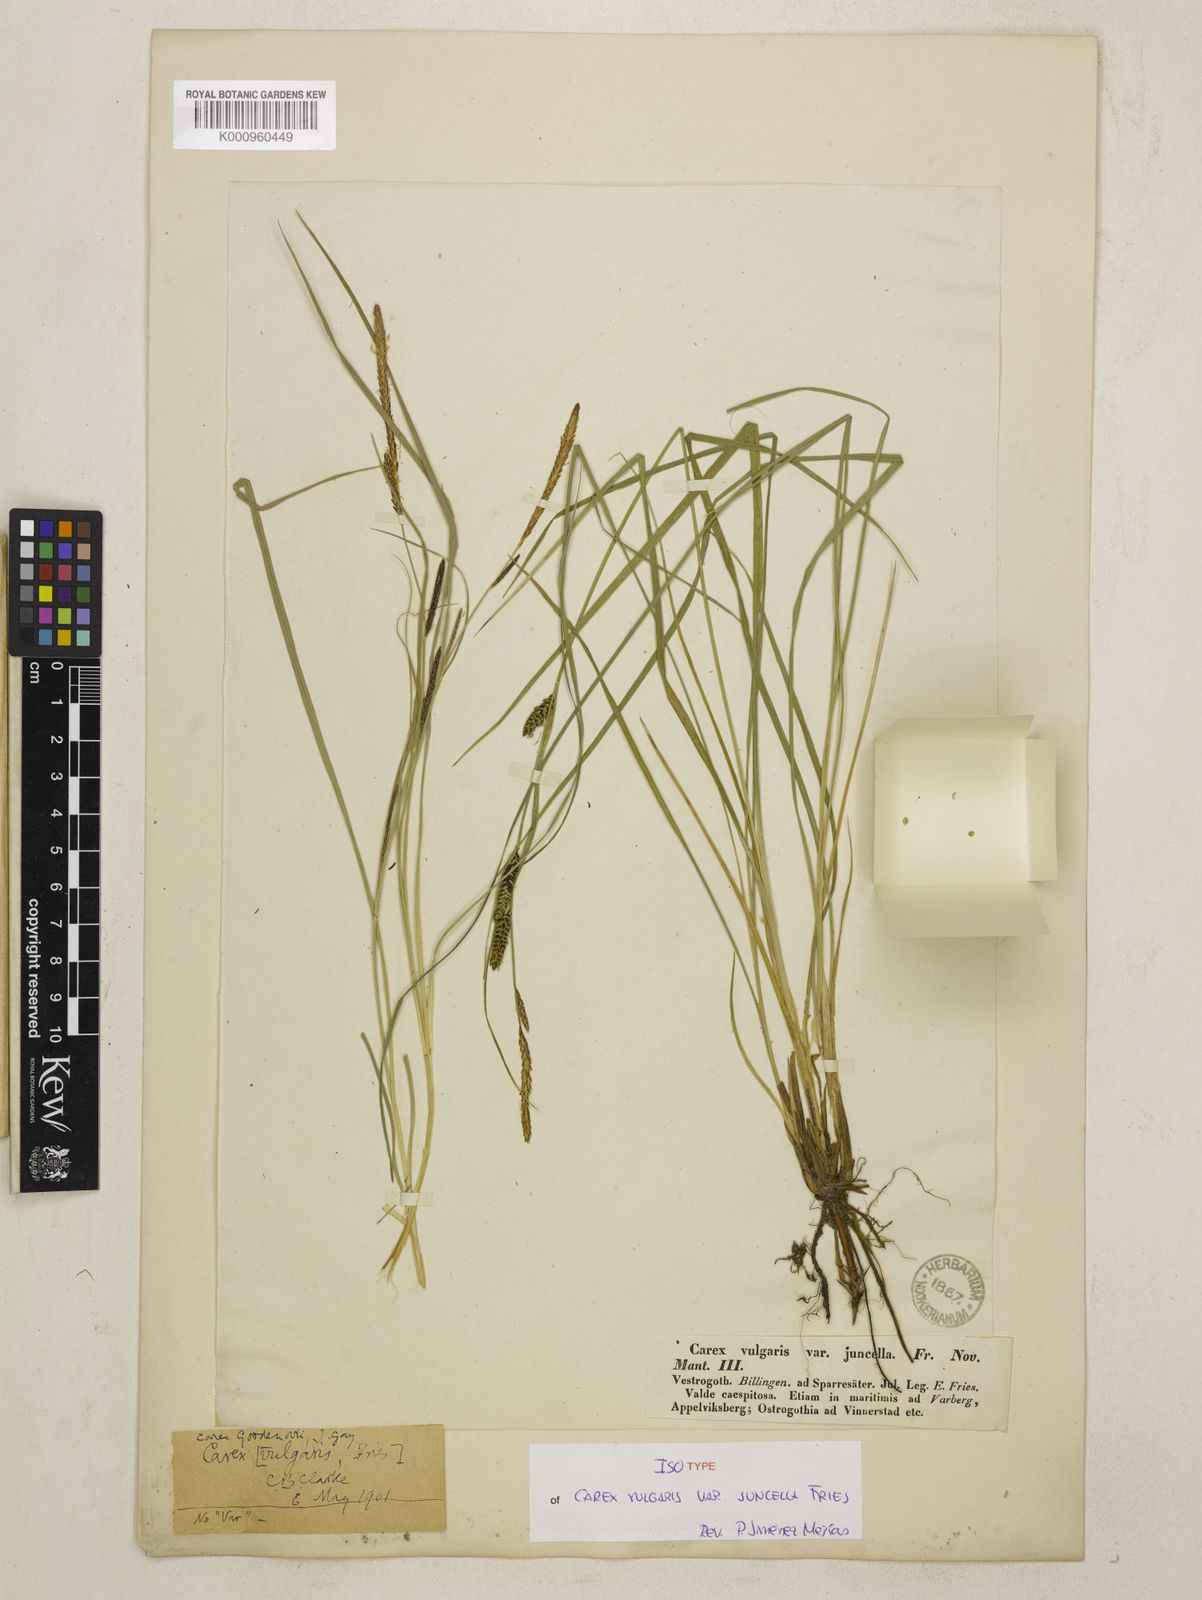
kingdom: Plantae
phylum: Tracheophyta
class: Liliopsida
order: Poales
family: Cyperaceae
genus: Carex
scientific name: Carex nigra
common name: Common sedge
